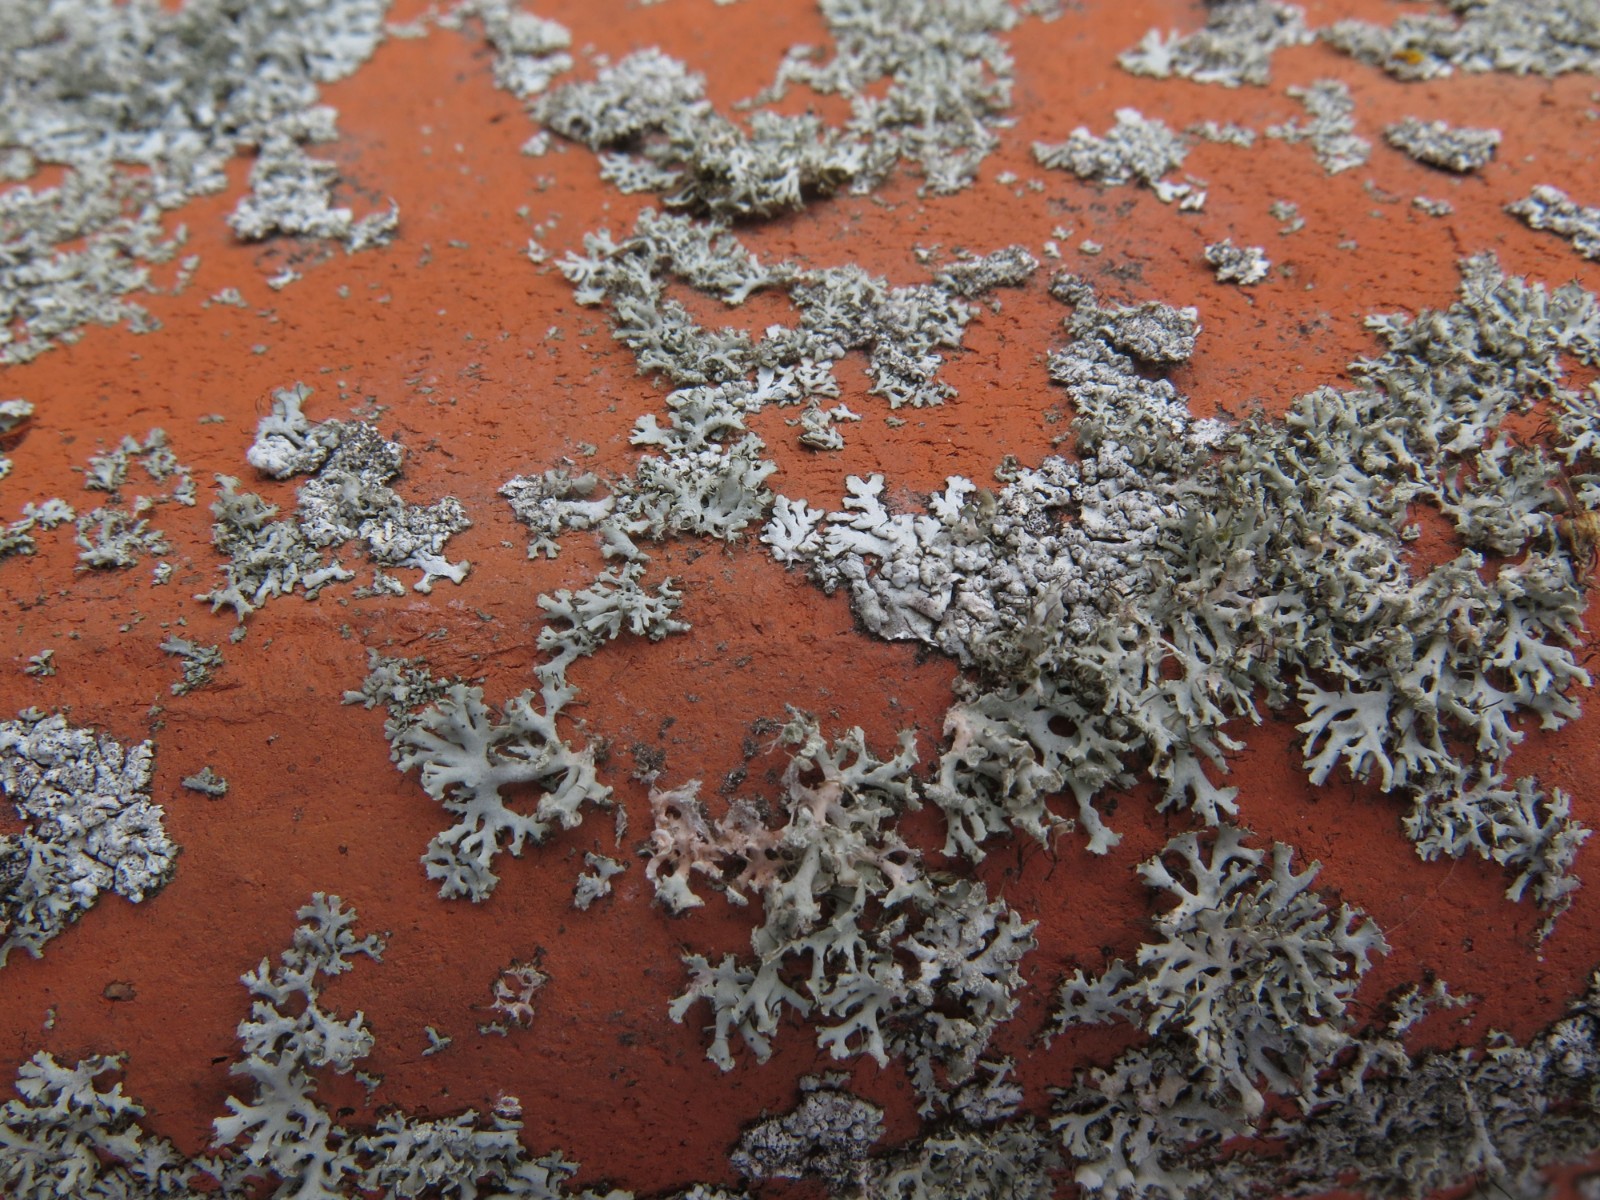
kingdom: Fungi
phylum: Basidiomycota
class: Agaricomycetes
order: Corticiales
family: Corticiaceae
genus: Erythricium
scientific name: Erythricium aurantiacum
